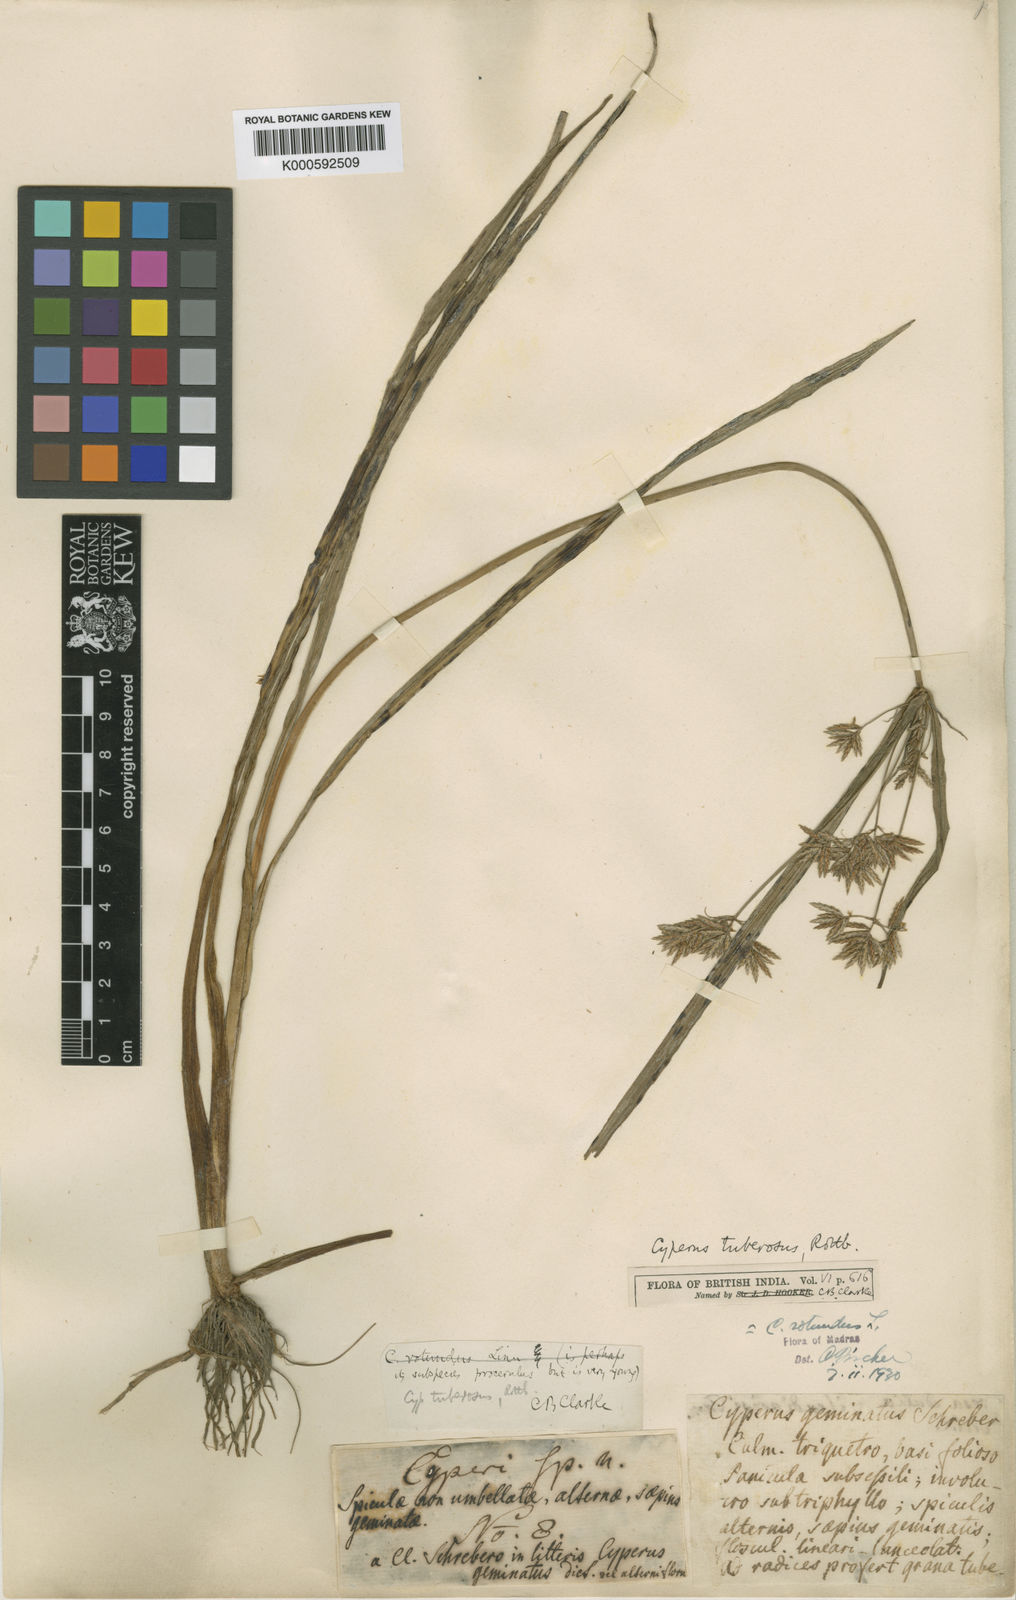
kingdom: Plantae
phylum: Tracheophyta
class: Liliopsida
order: Poales
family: Cyperaceae
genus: Fimbristylis
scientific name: Fimbristylis bahiensis
